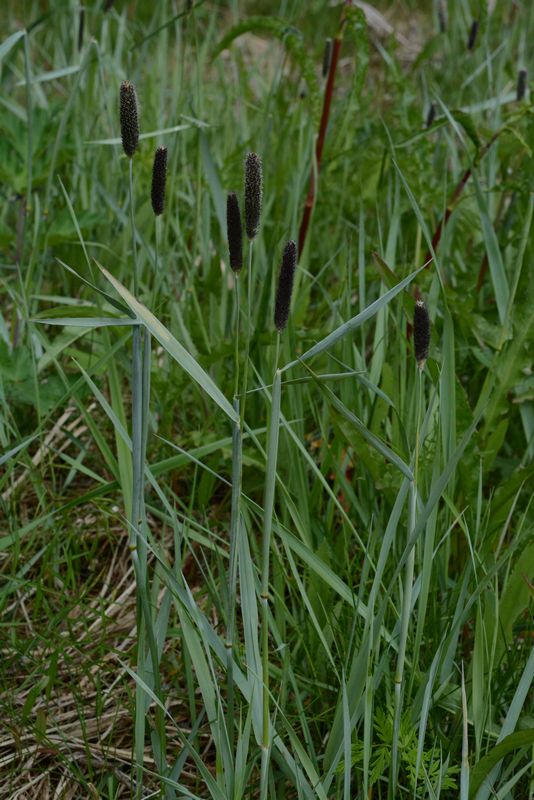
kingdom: Plantae
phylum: Tracheophyta
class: Liliopsida
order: Poales
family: Poaceae
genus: Alopecurus
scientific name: Alopecurus arundinaceus
